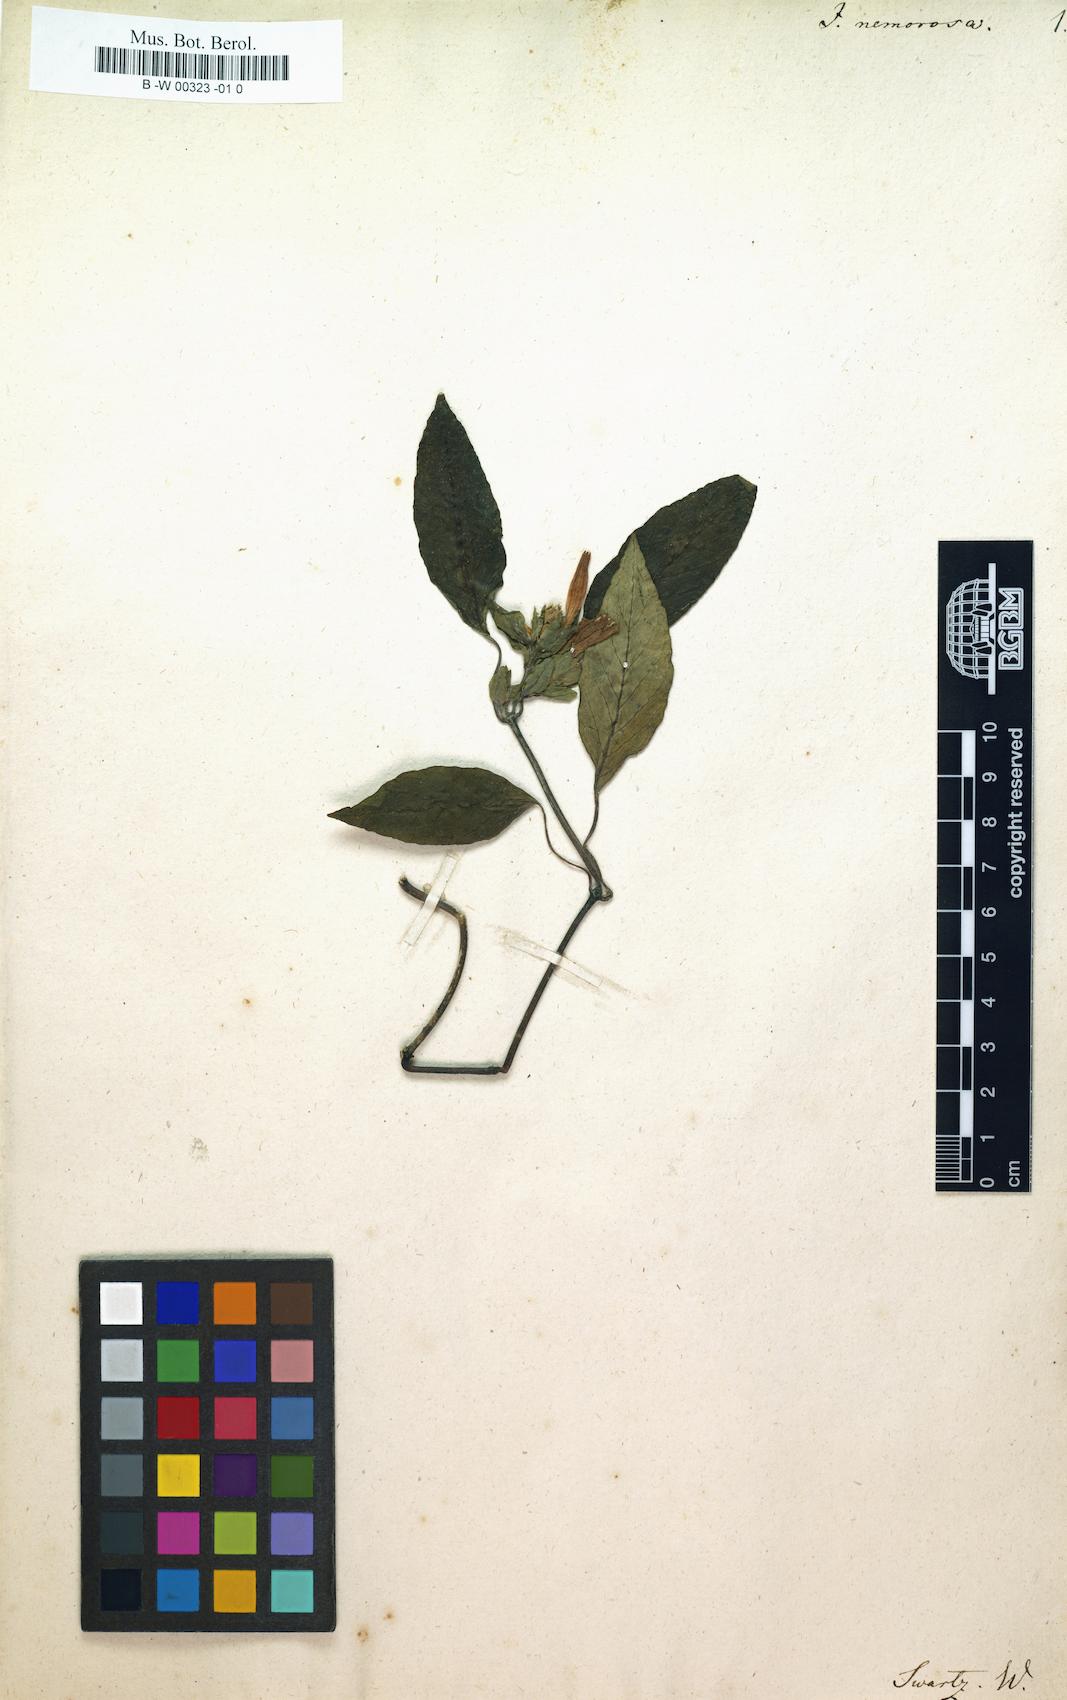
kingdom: Plantae
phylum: Tracheophyta
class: Magnoliopsida
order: Lamiales
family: Acanthaceae
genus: Tetramerium
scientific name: Tetramerium nervosum
